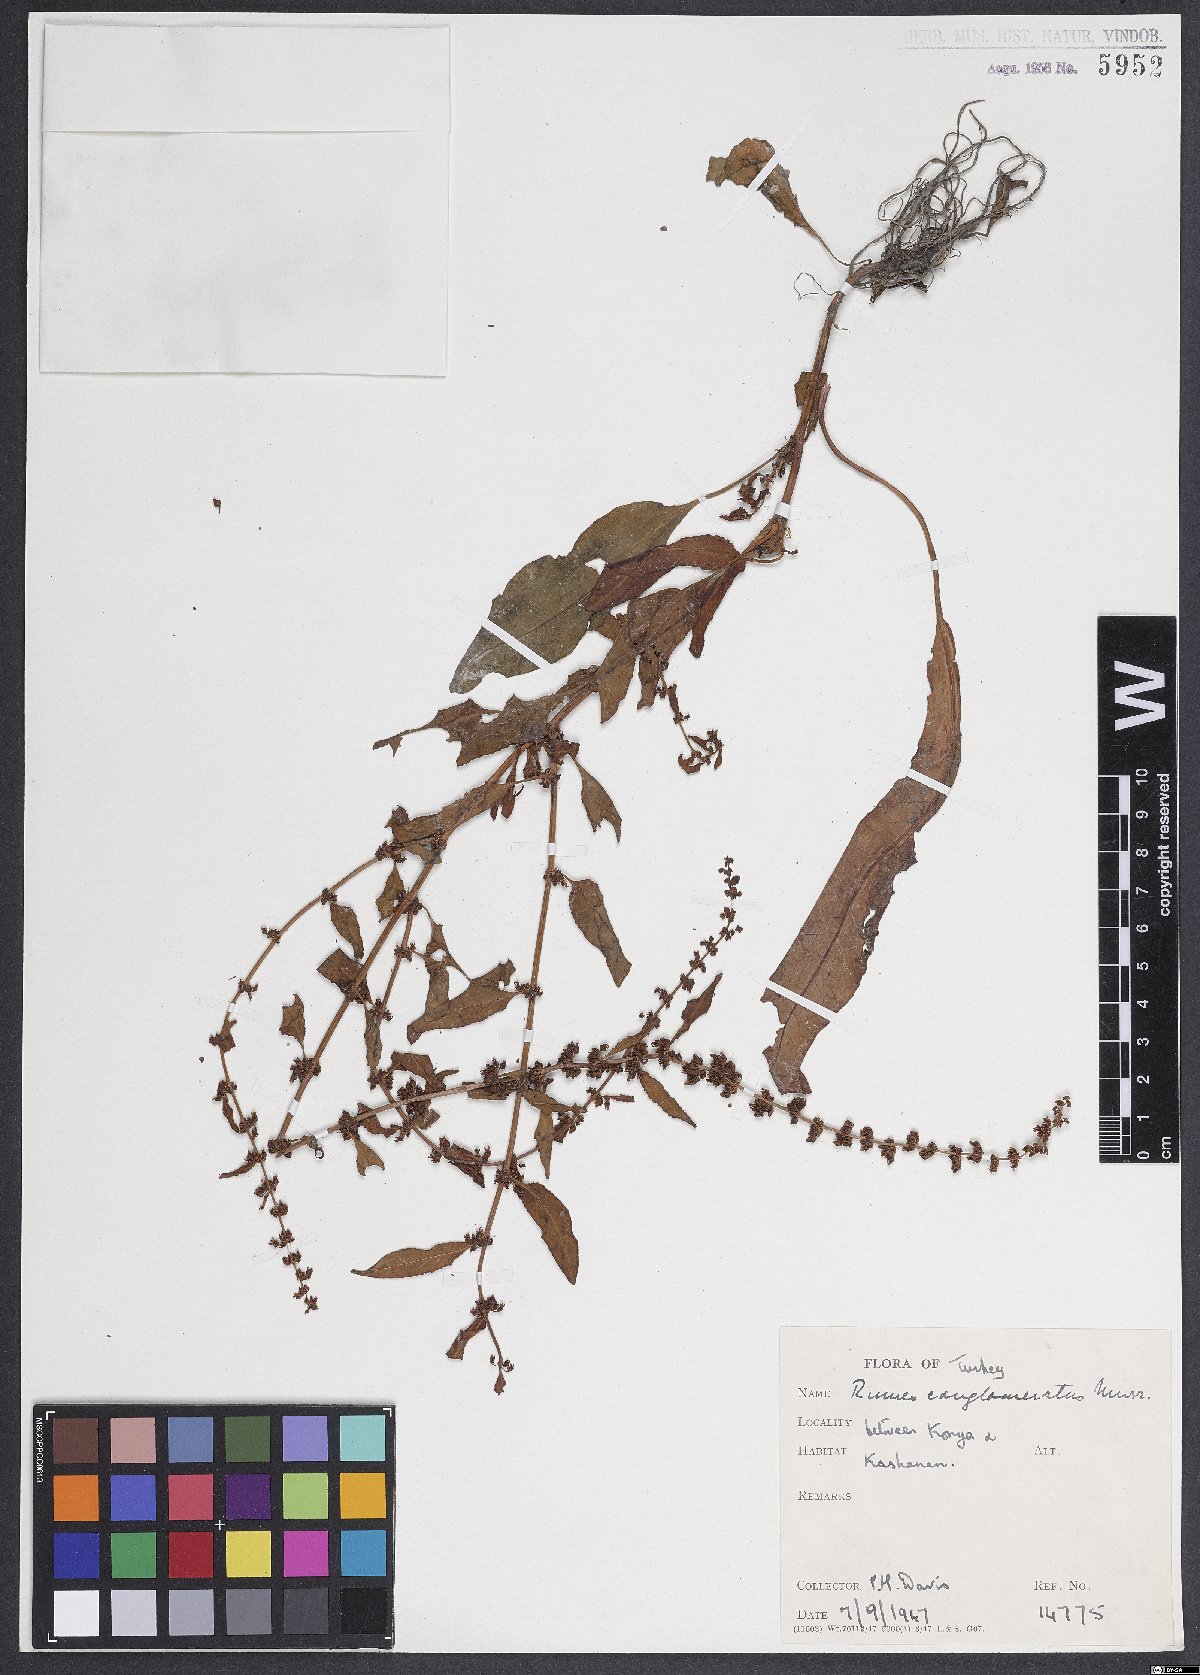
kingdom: Plantae
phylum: Tracheophyta
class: Magnoliopsida
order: Caryophyllales
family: Polygonaceae
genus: Rumex
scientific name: Rumex conglomeratus
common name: Clustered dock
